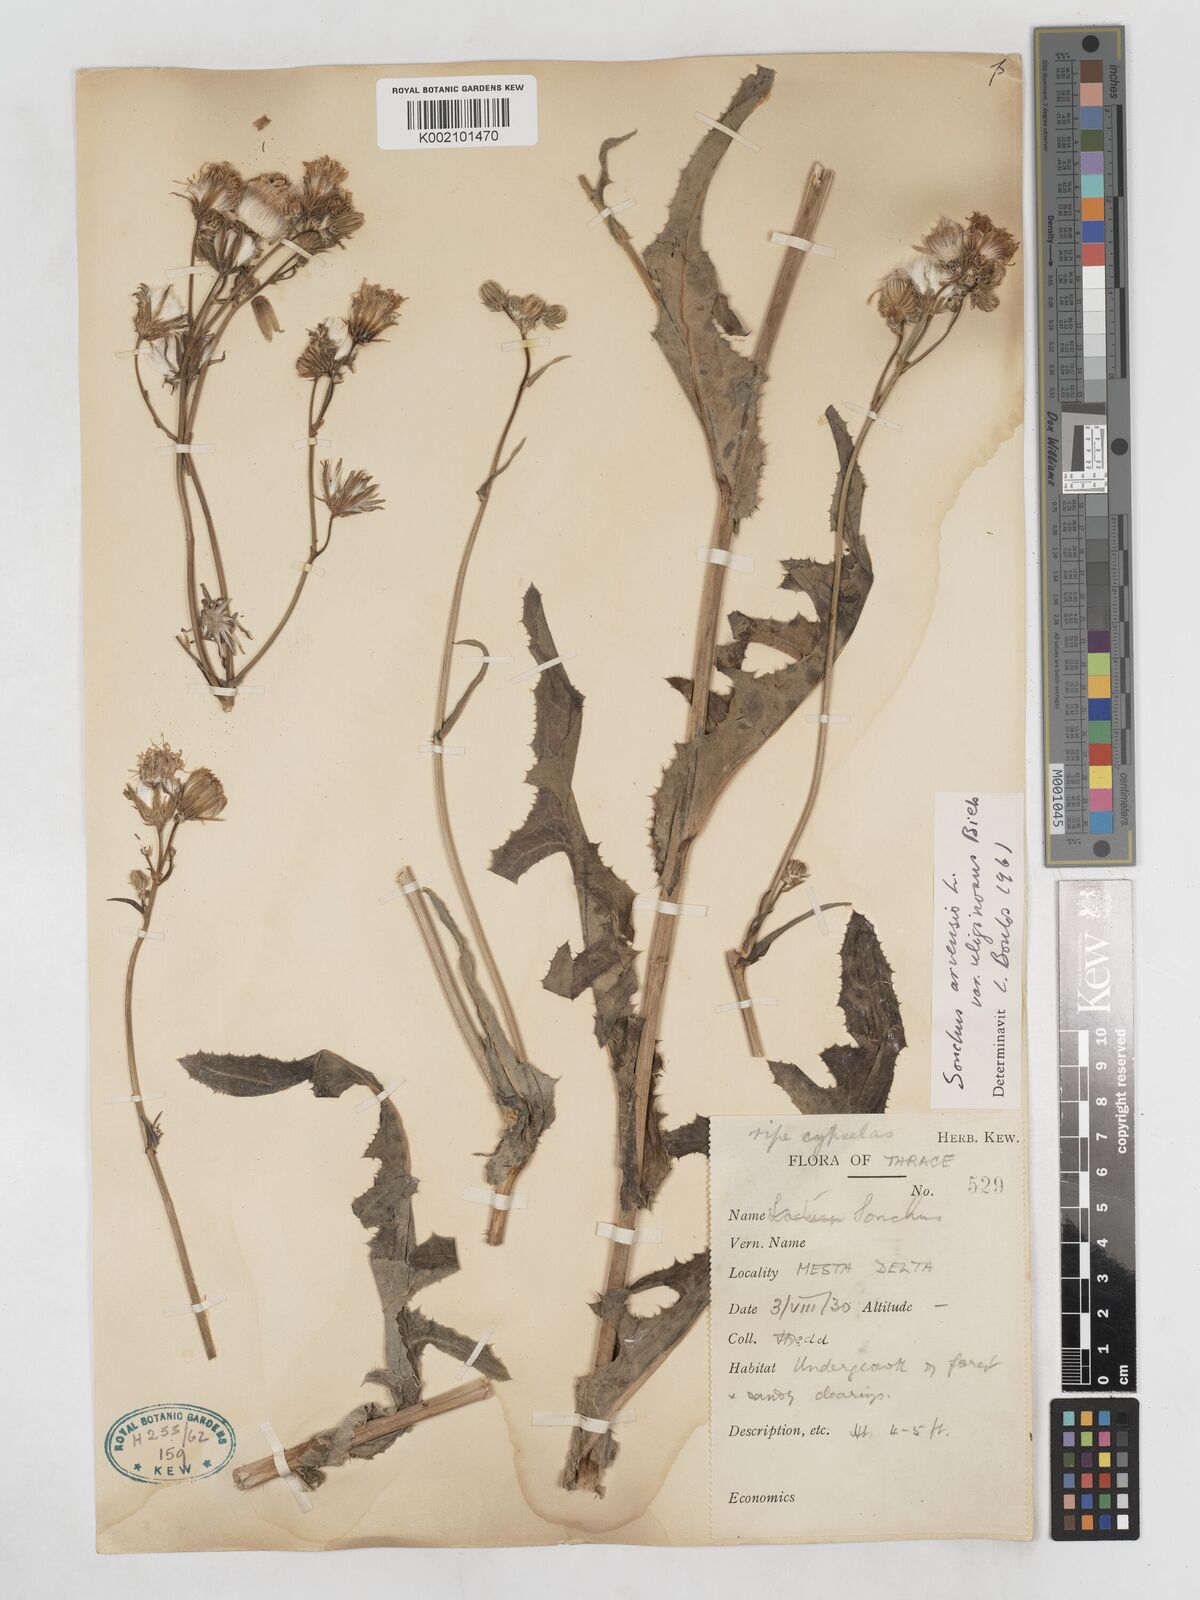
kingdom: Plantae
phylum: Tracheophyta
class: Magnoliopsida
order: Asterales
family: Asteraceae
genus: Sonchus
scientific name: Sonchus arvensis
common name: Perennial sow-thistle
